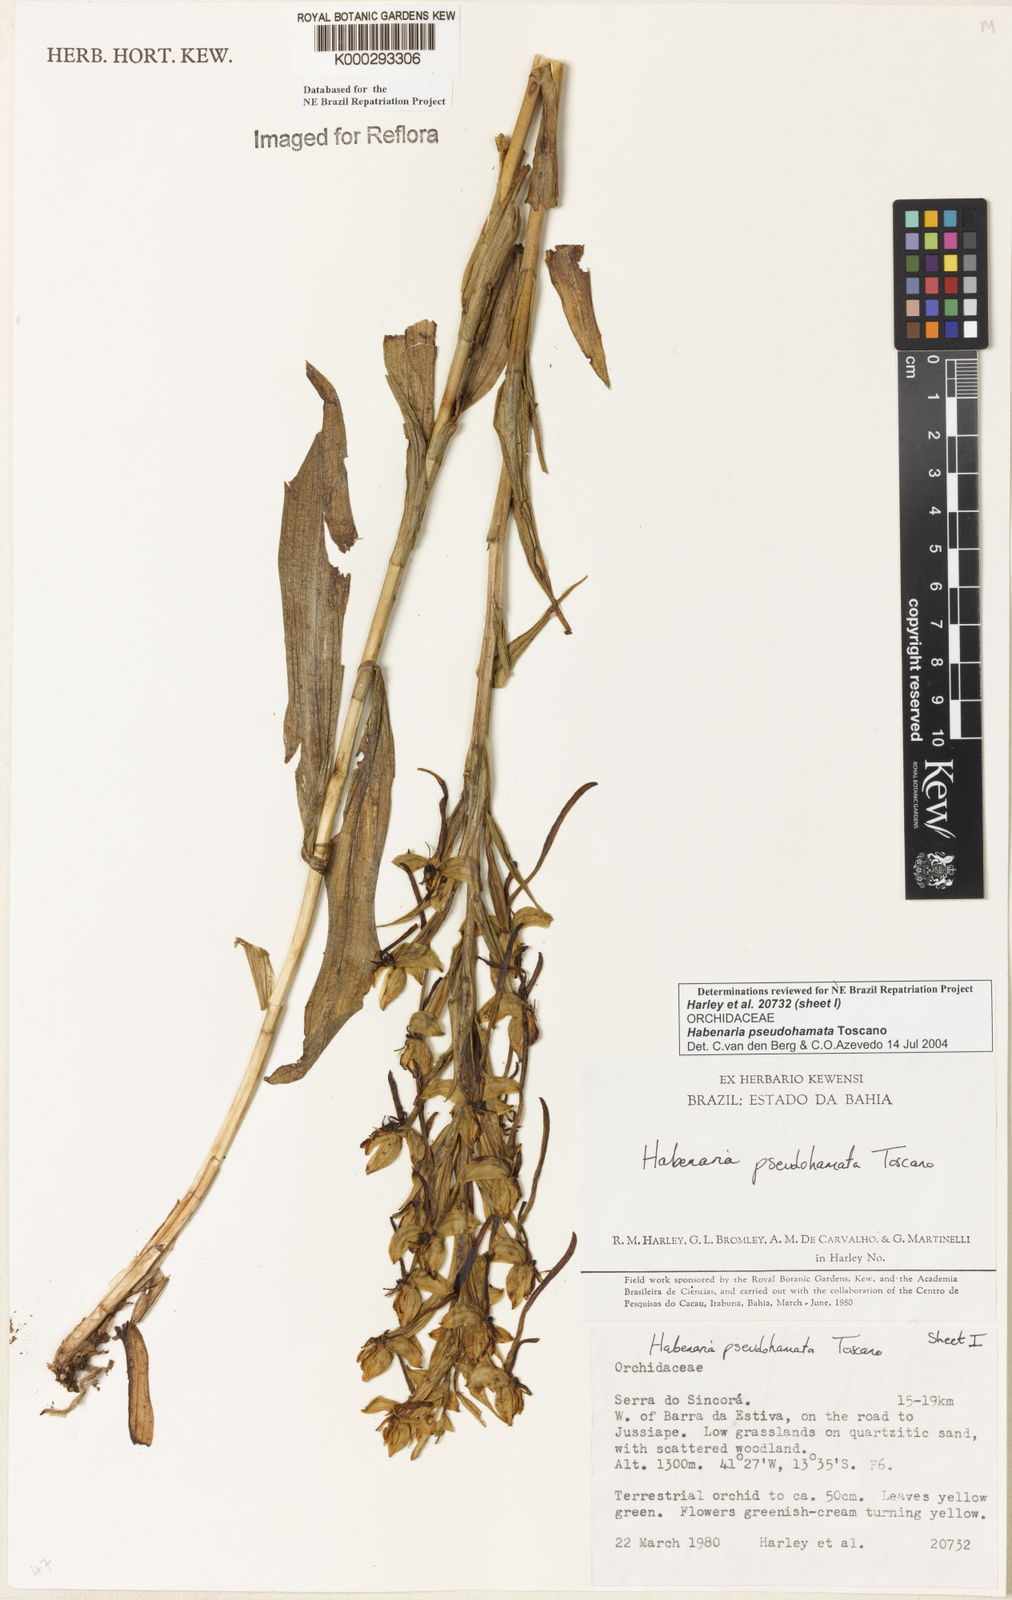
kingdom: Plantae
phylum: Tracheophyta
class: Liliopsida
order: Asparagales
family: Orchidaceae
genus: Habenaria
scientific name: Habenaria pseudohamata
